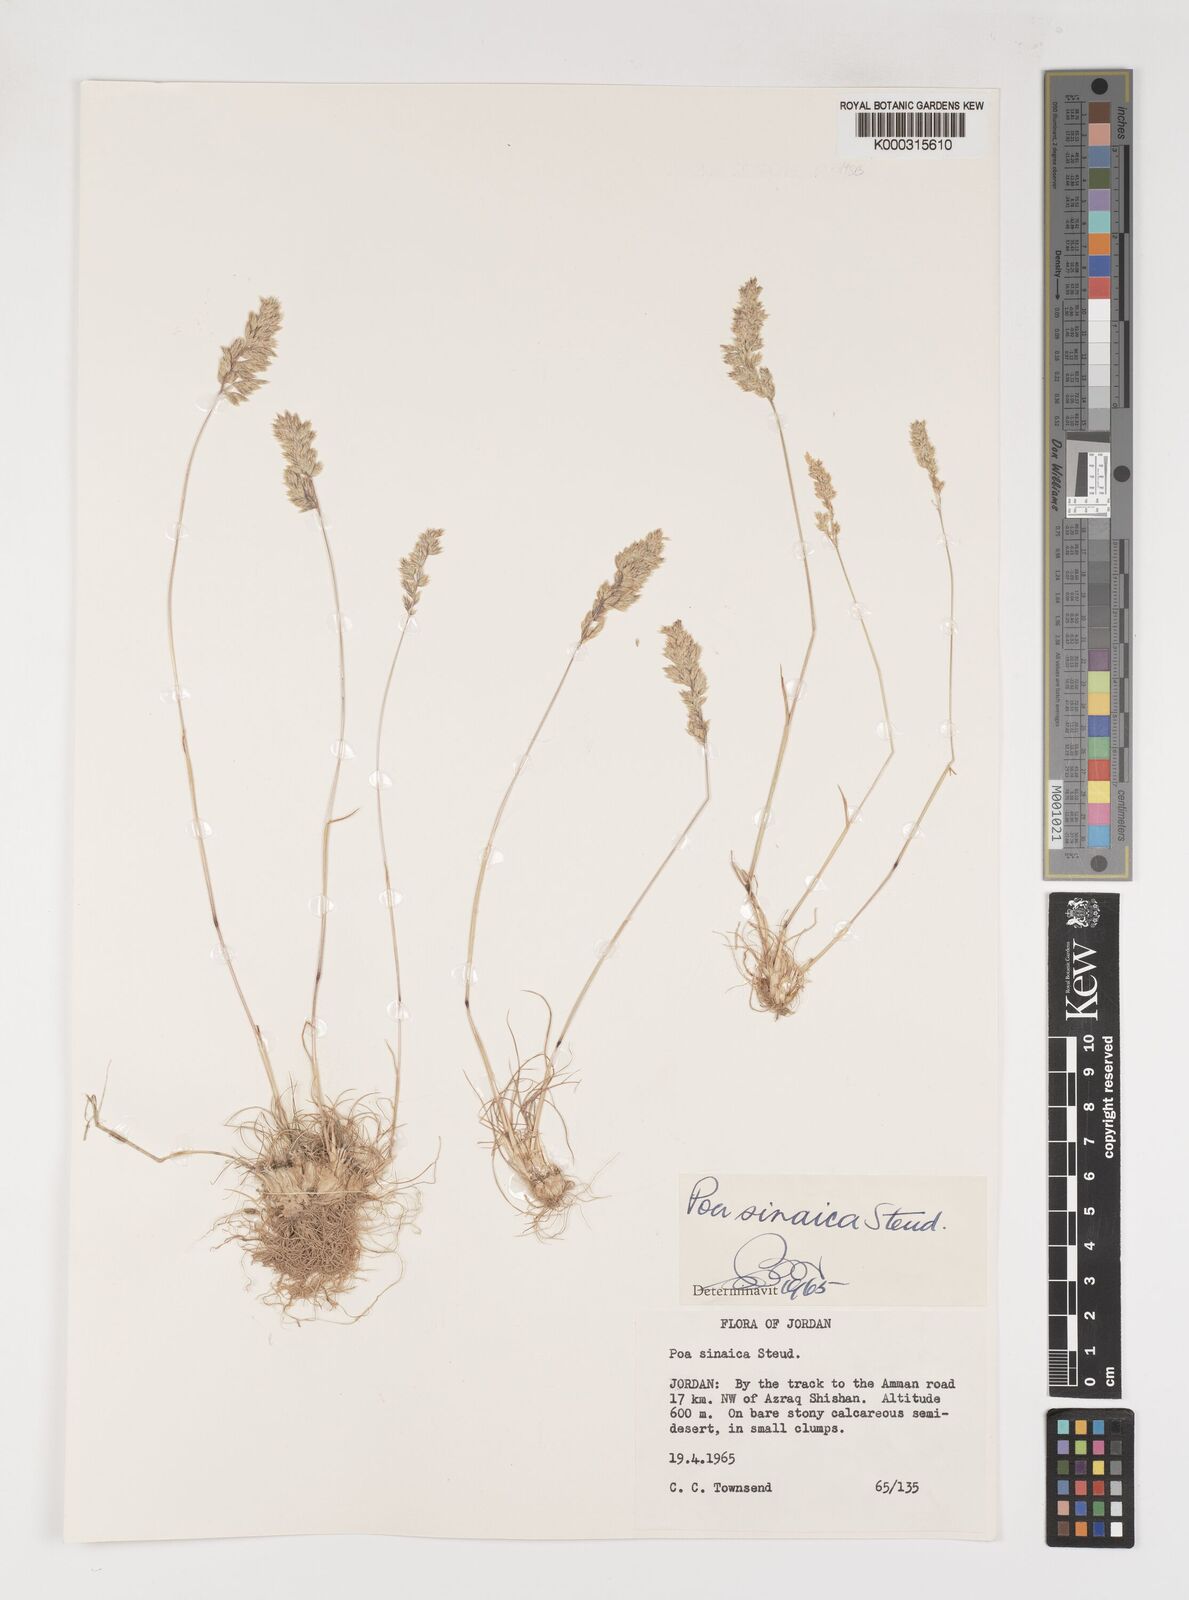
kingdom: Plantae
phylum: Tracheophyta
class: Liliopsida
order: Poales
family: Poaceae
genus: Poa
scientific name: Poa sinaica
